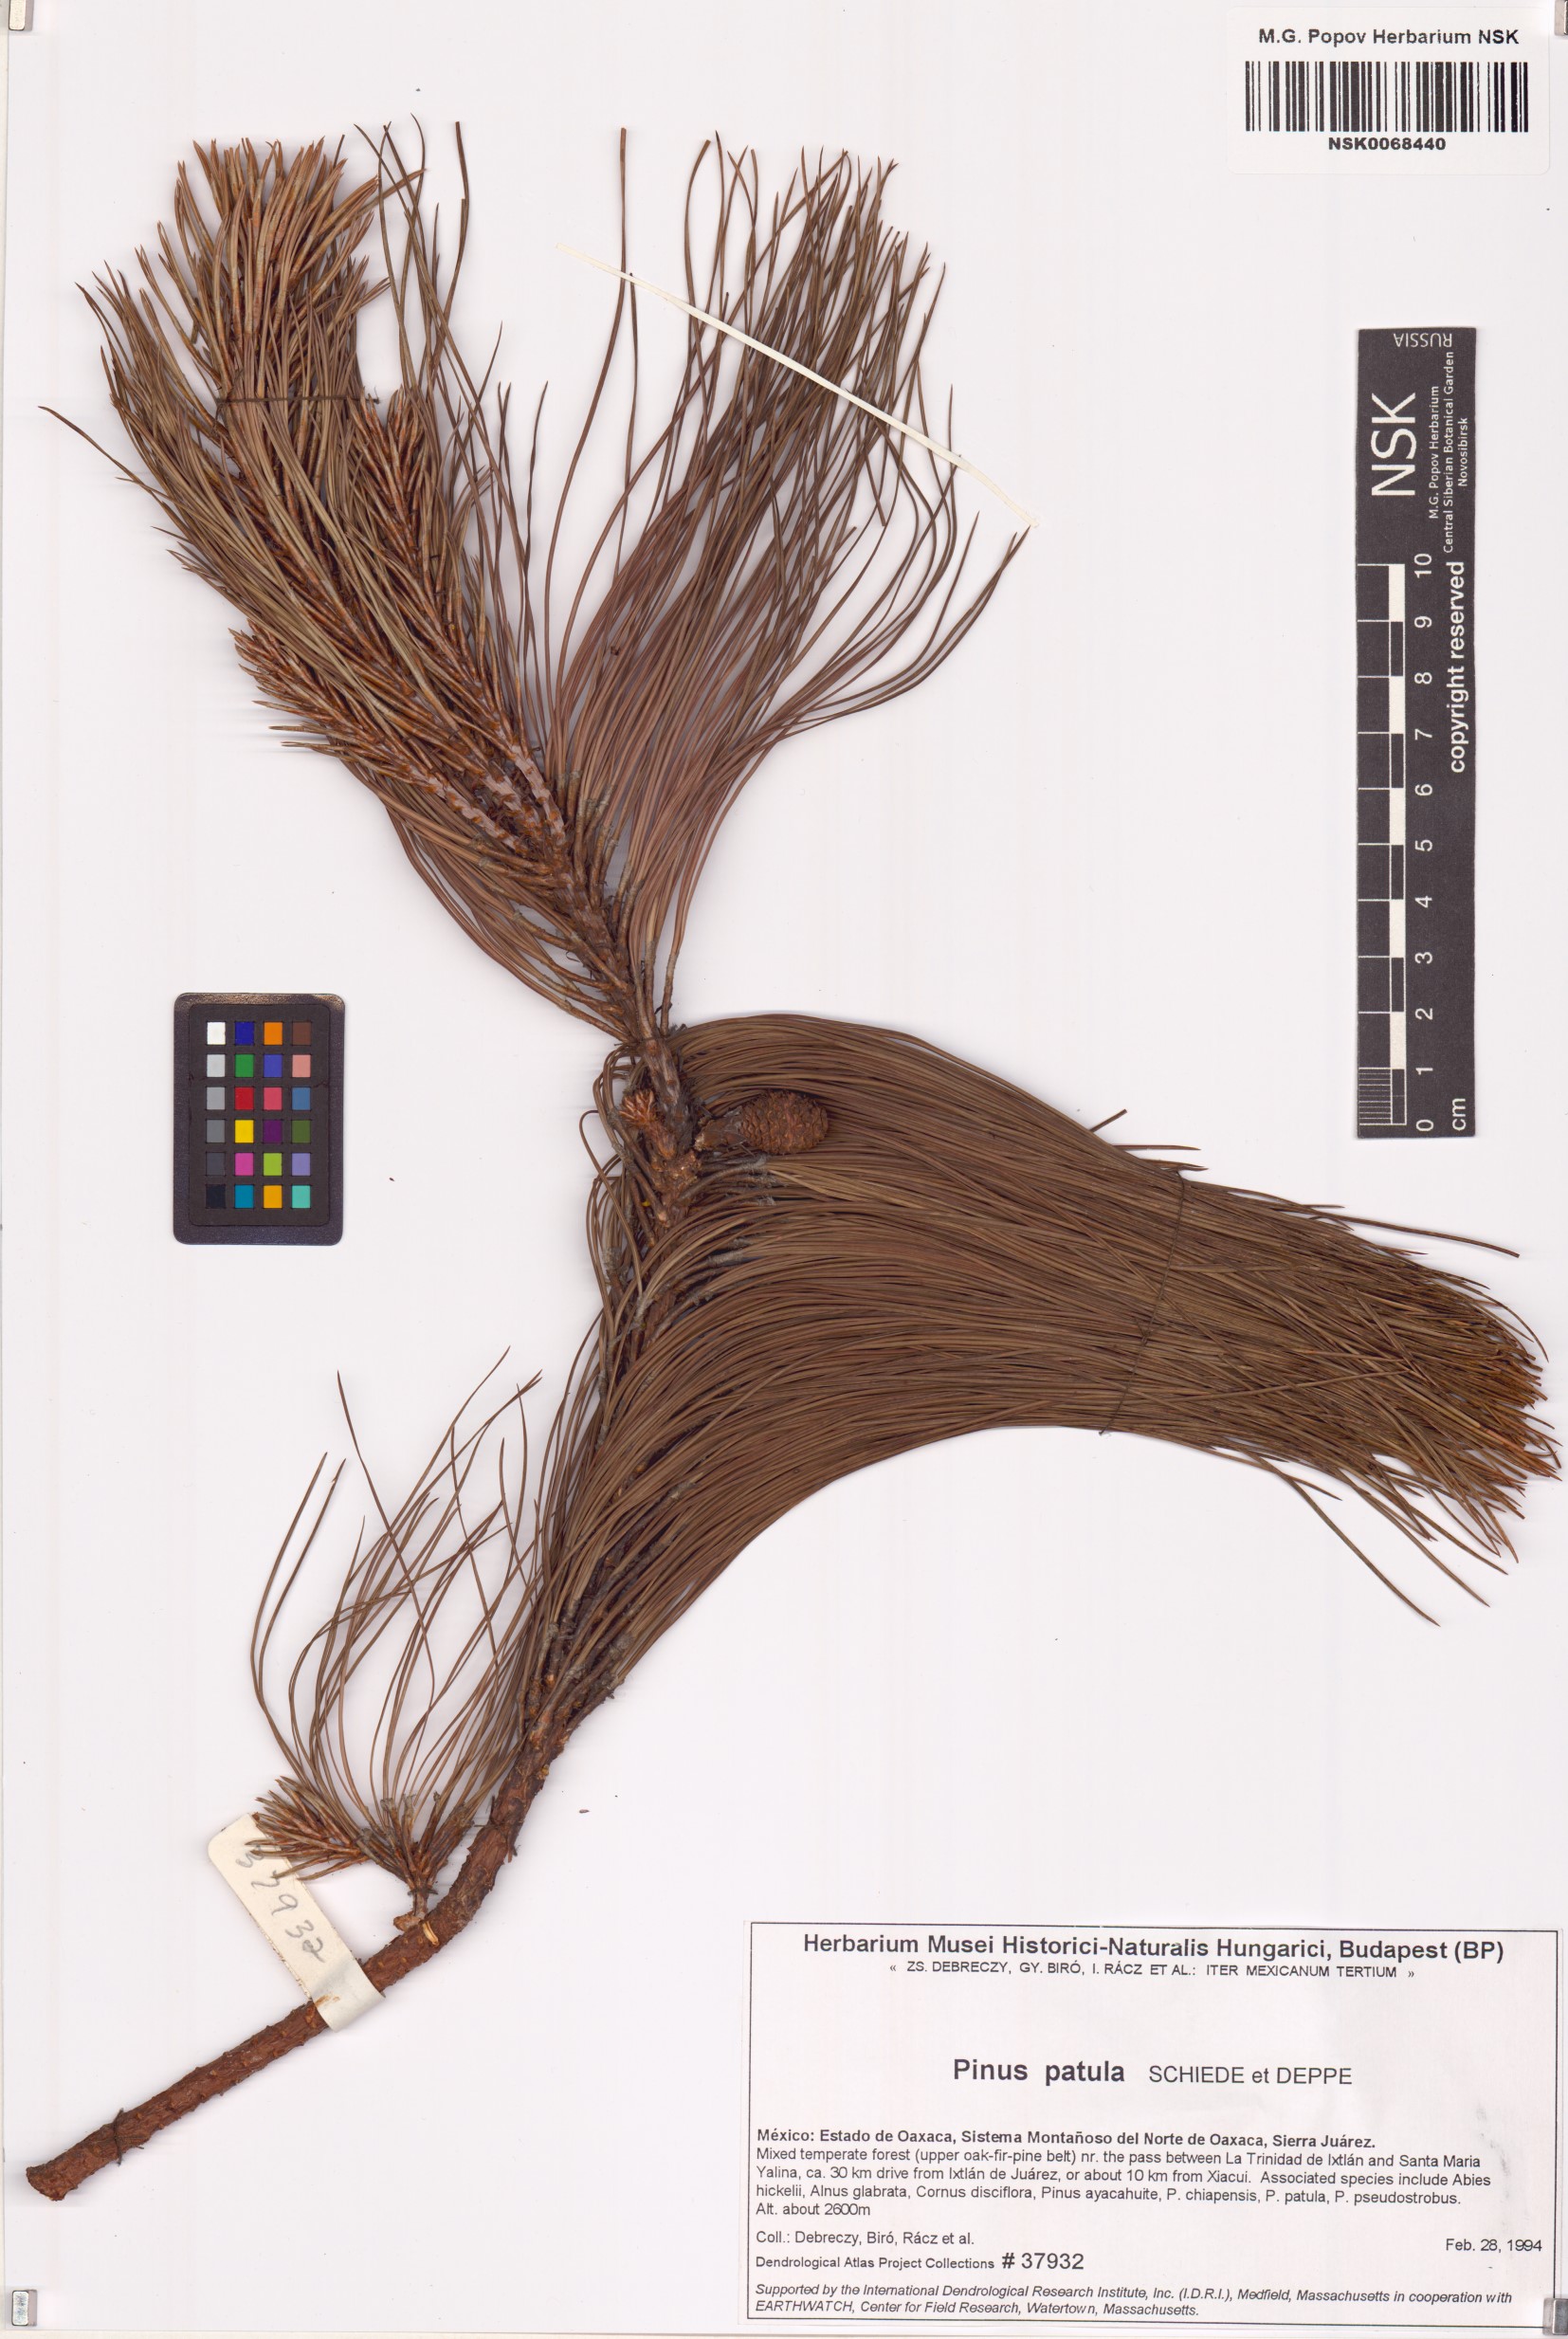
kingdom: Plantae
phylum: Tracheophyta
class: Pinopsida
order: Pinales
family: Pinaceae
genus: Pinus
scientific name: Pinus patula
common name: Mexican weeping pine
